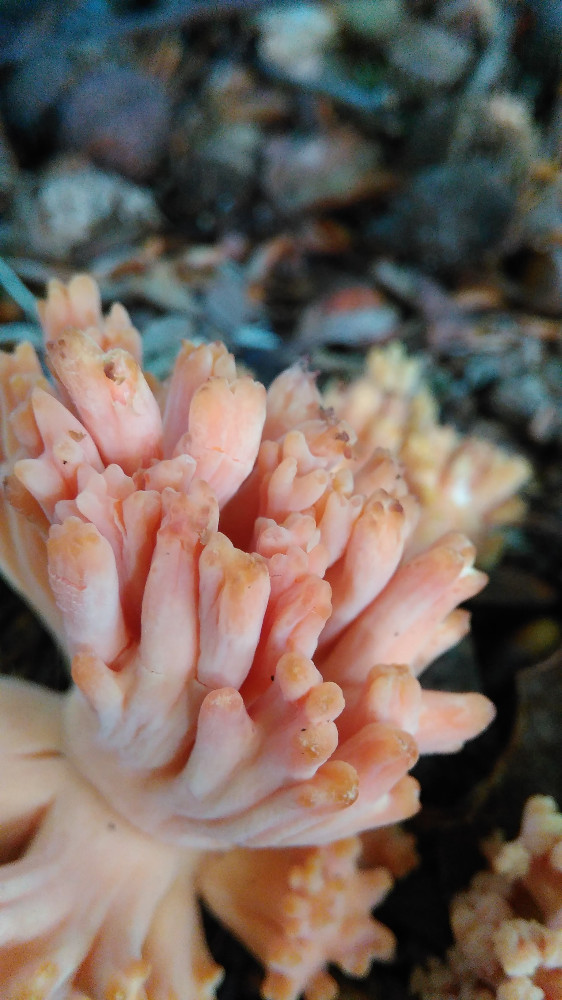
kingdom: Fungi
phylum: Basidiomycota
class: Agaricomycetes
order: Gomphales
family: Gomphaceae
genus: Ramaria
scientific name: Ramaria fagetorum
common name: abrikos-koralsvamp
